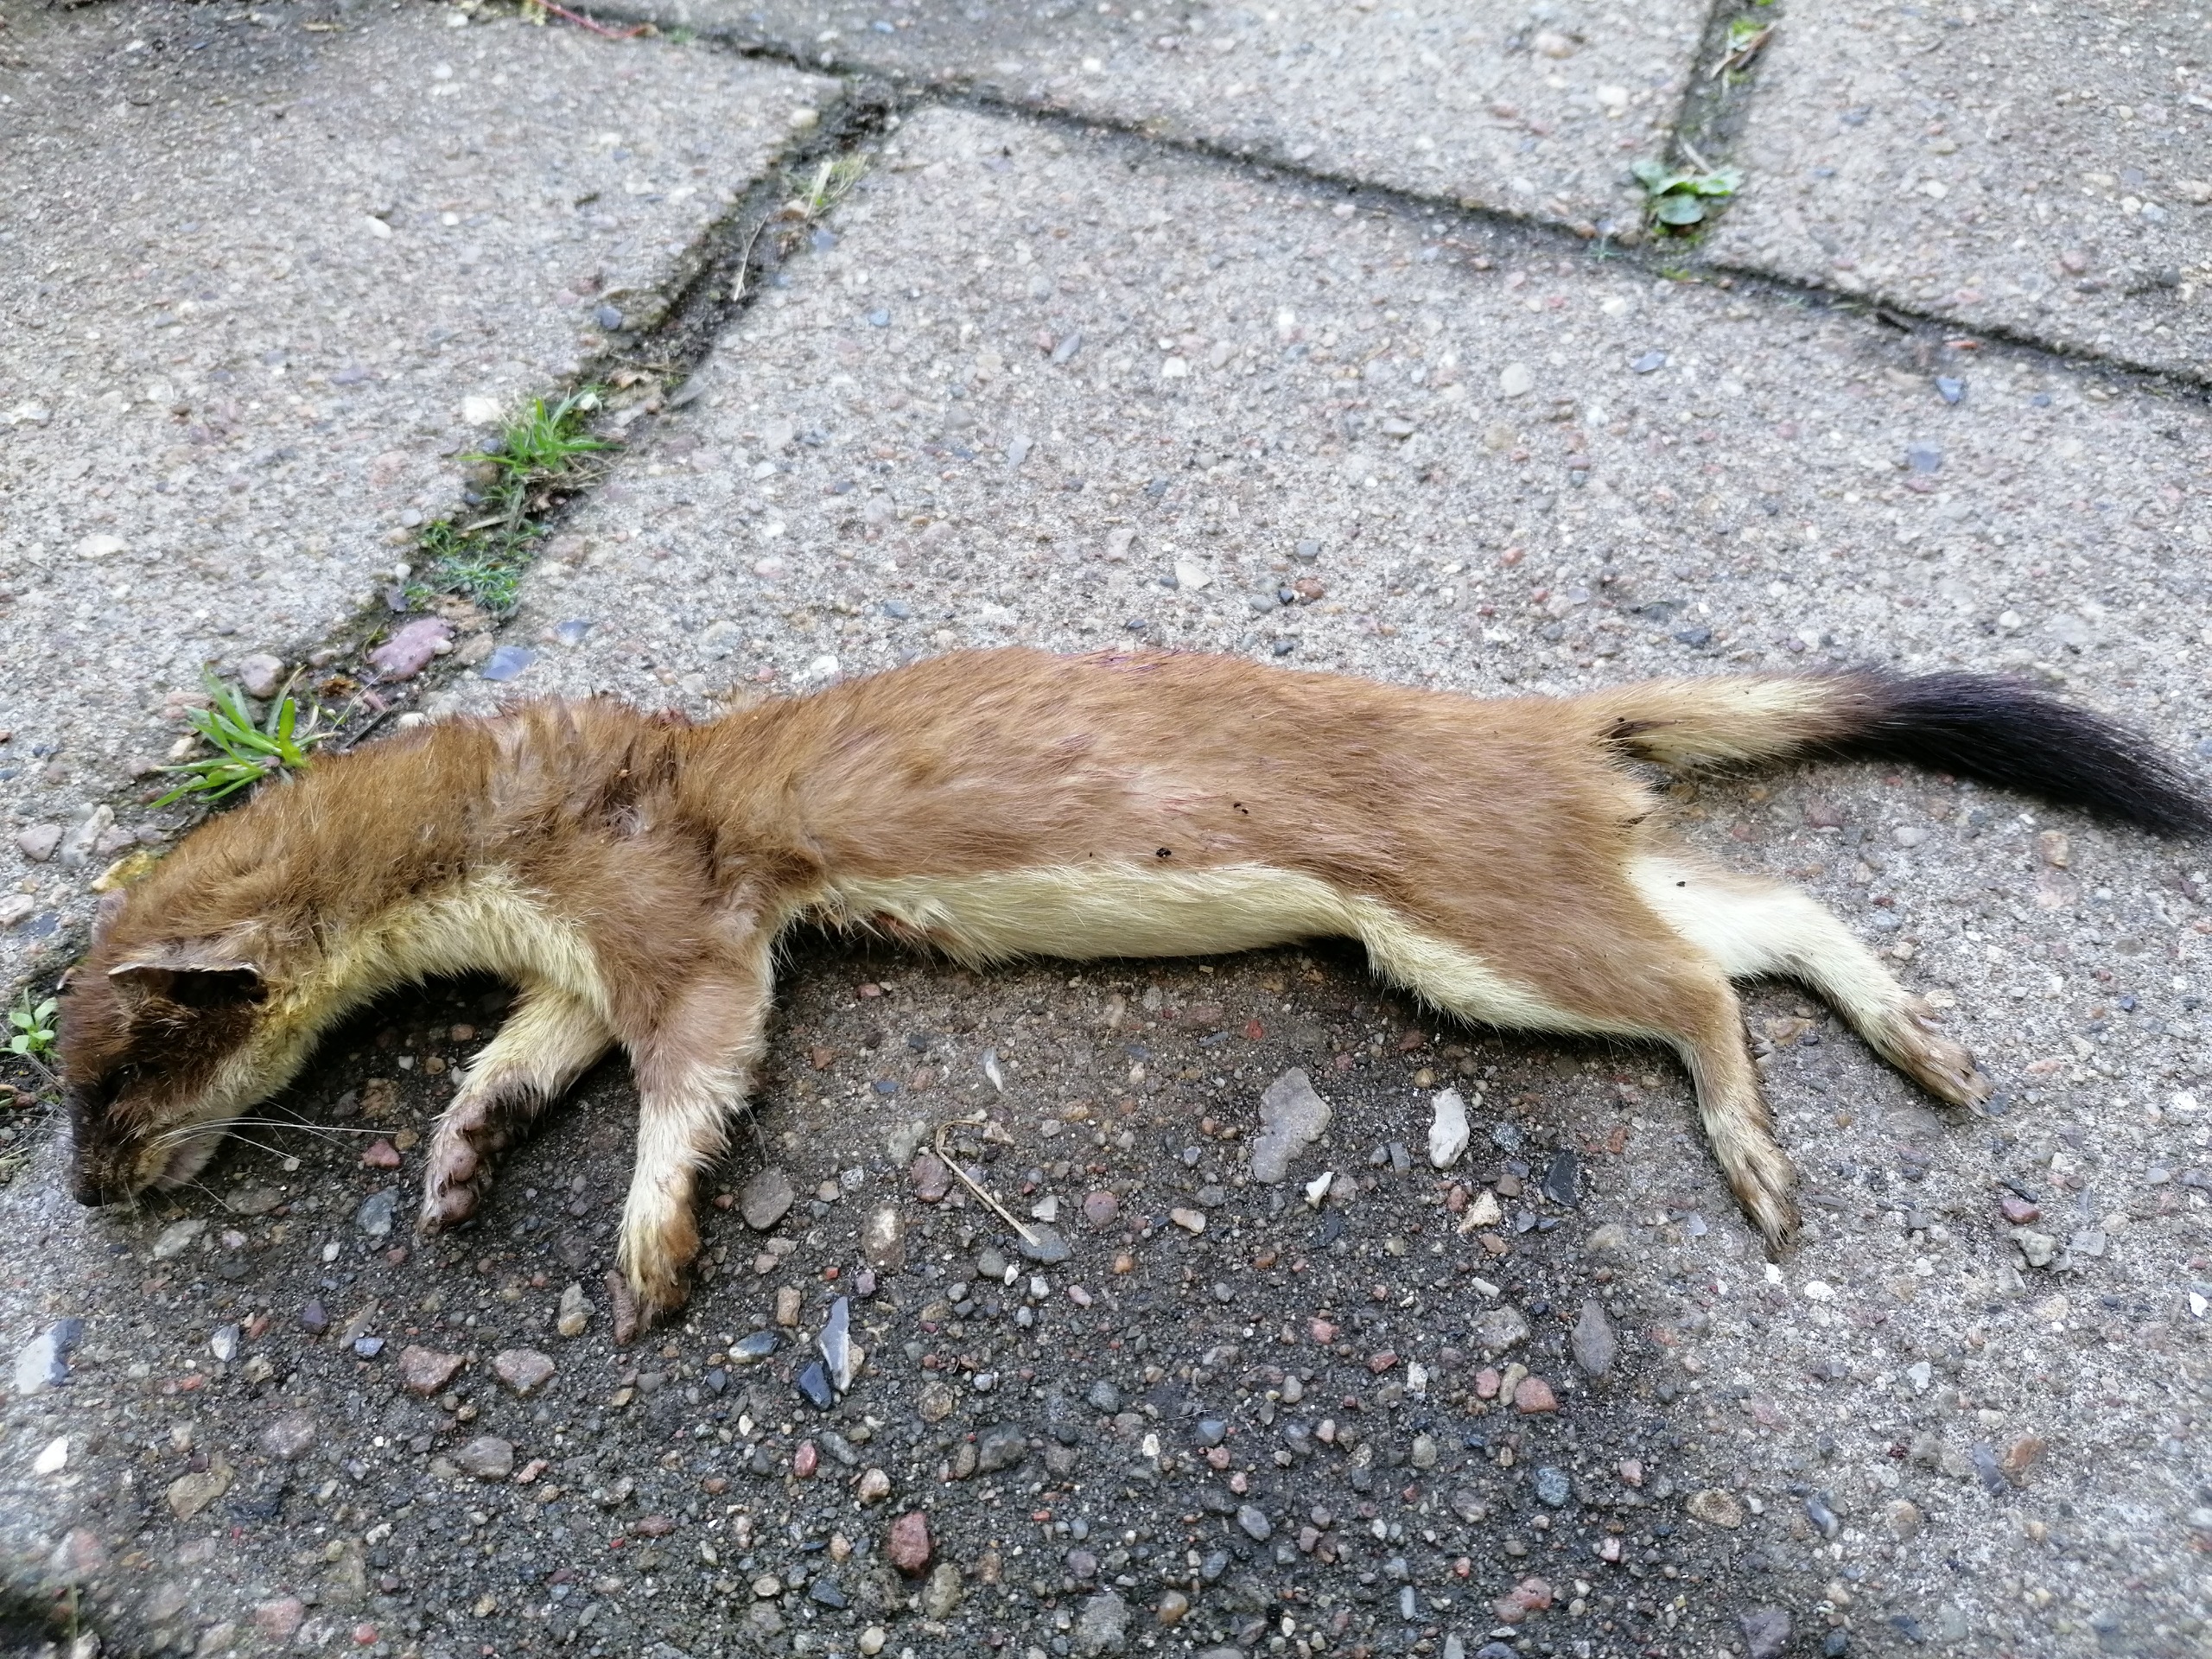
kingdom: Animalia
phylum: Chordata
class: Mammalia
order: Carnivora
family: Mustelidae
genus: Mustela
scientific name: Mustela erminea
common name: Lækat
